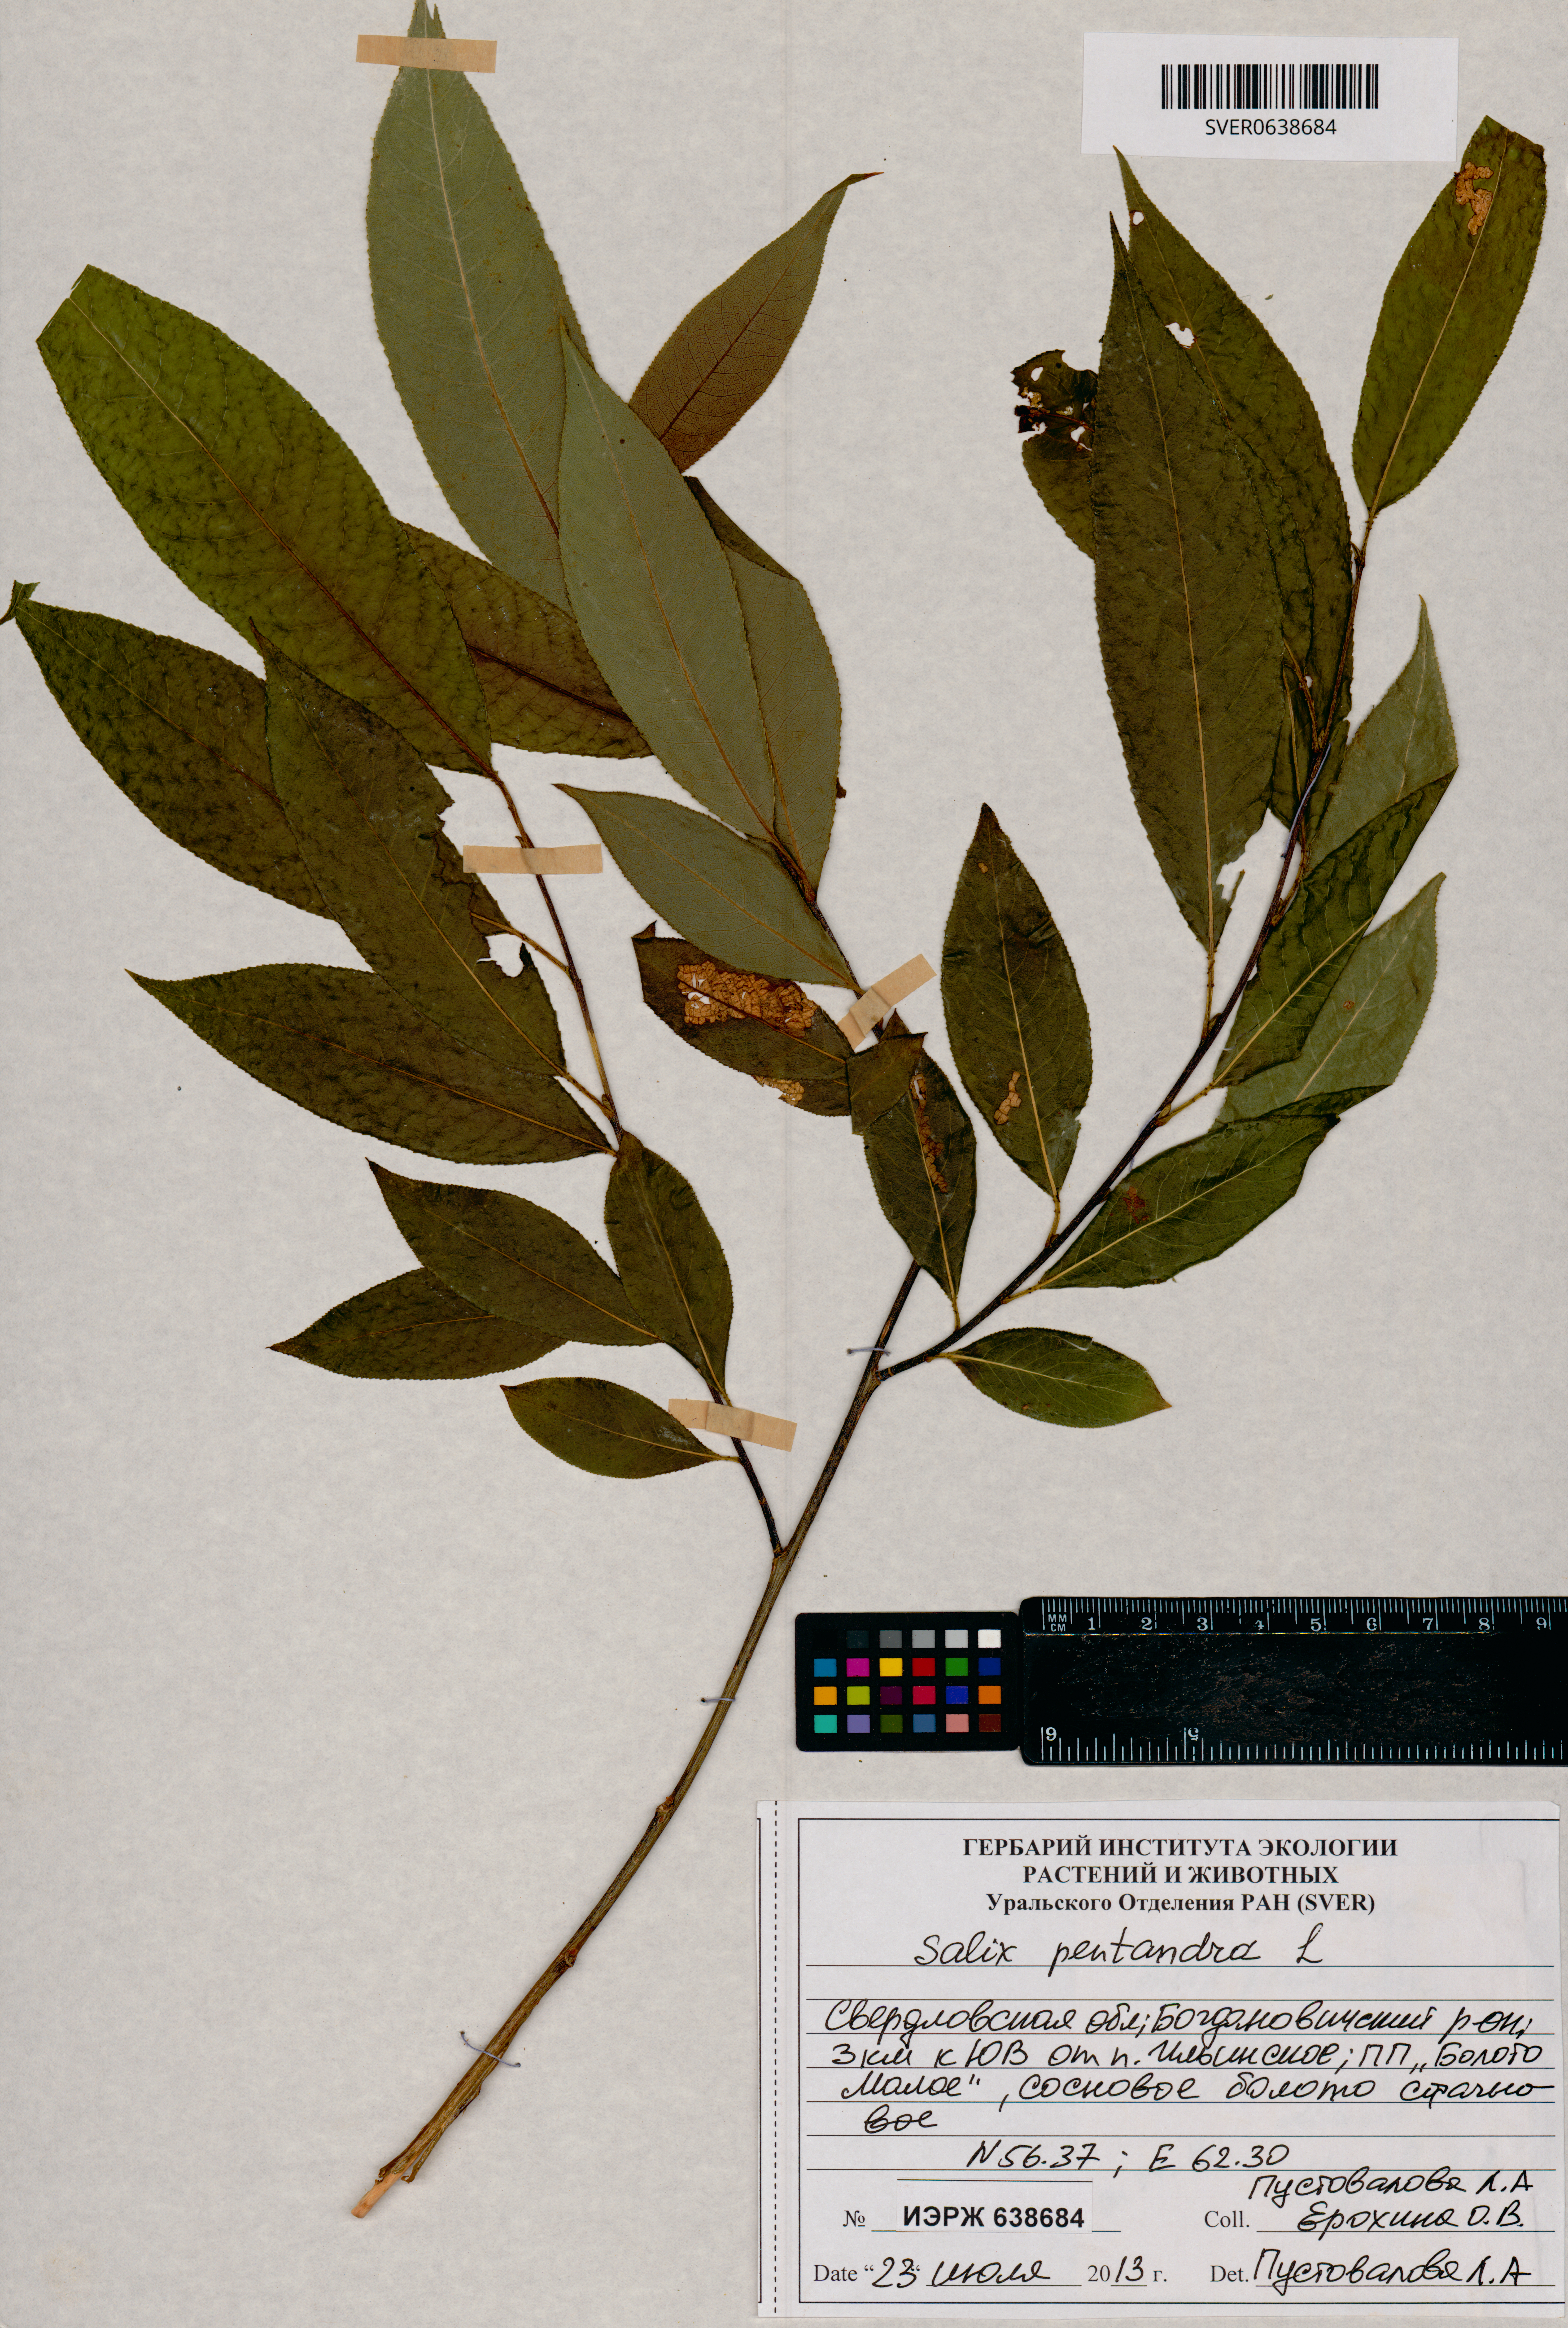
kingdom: Plantae
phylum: Tracheophyta
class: Magnoliopsida
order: Malpighiales
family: Salicaceae
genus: Salix
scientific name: Salix pentandra
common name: Bay willow
